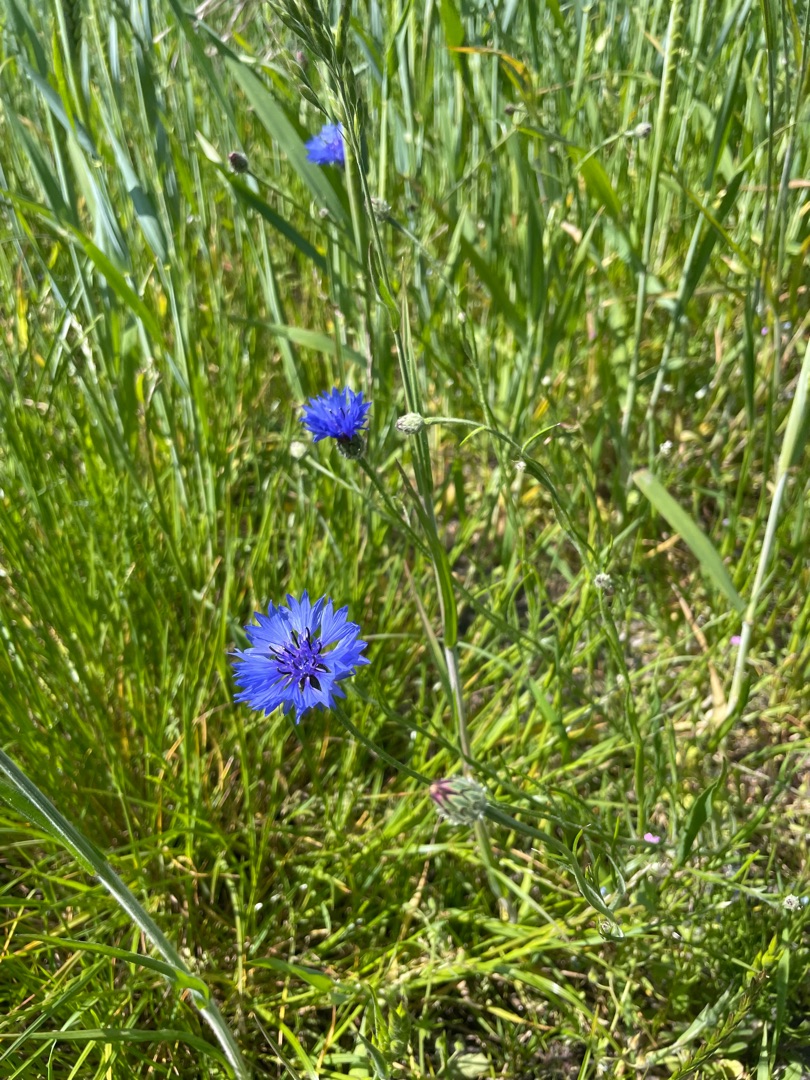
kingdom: Plantae
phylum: Tracheophyta
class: Magnoliopsida
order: Asterales
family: Asteraceae
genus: Centaurea
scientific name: Centaurea cyanus
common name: Kornblomst
